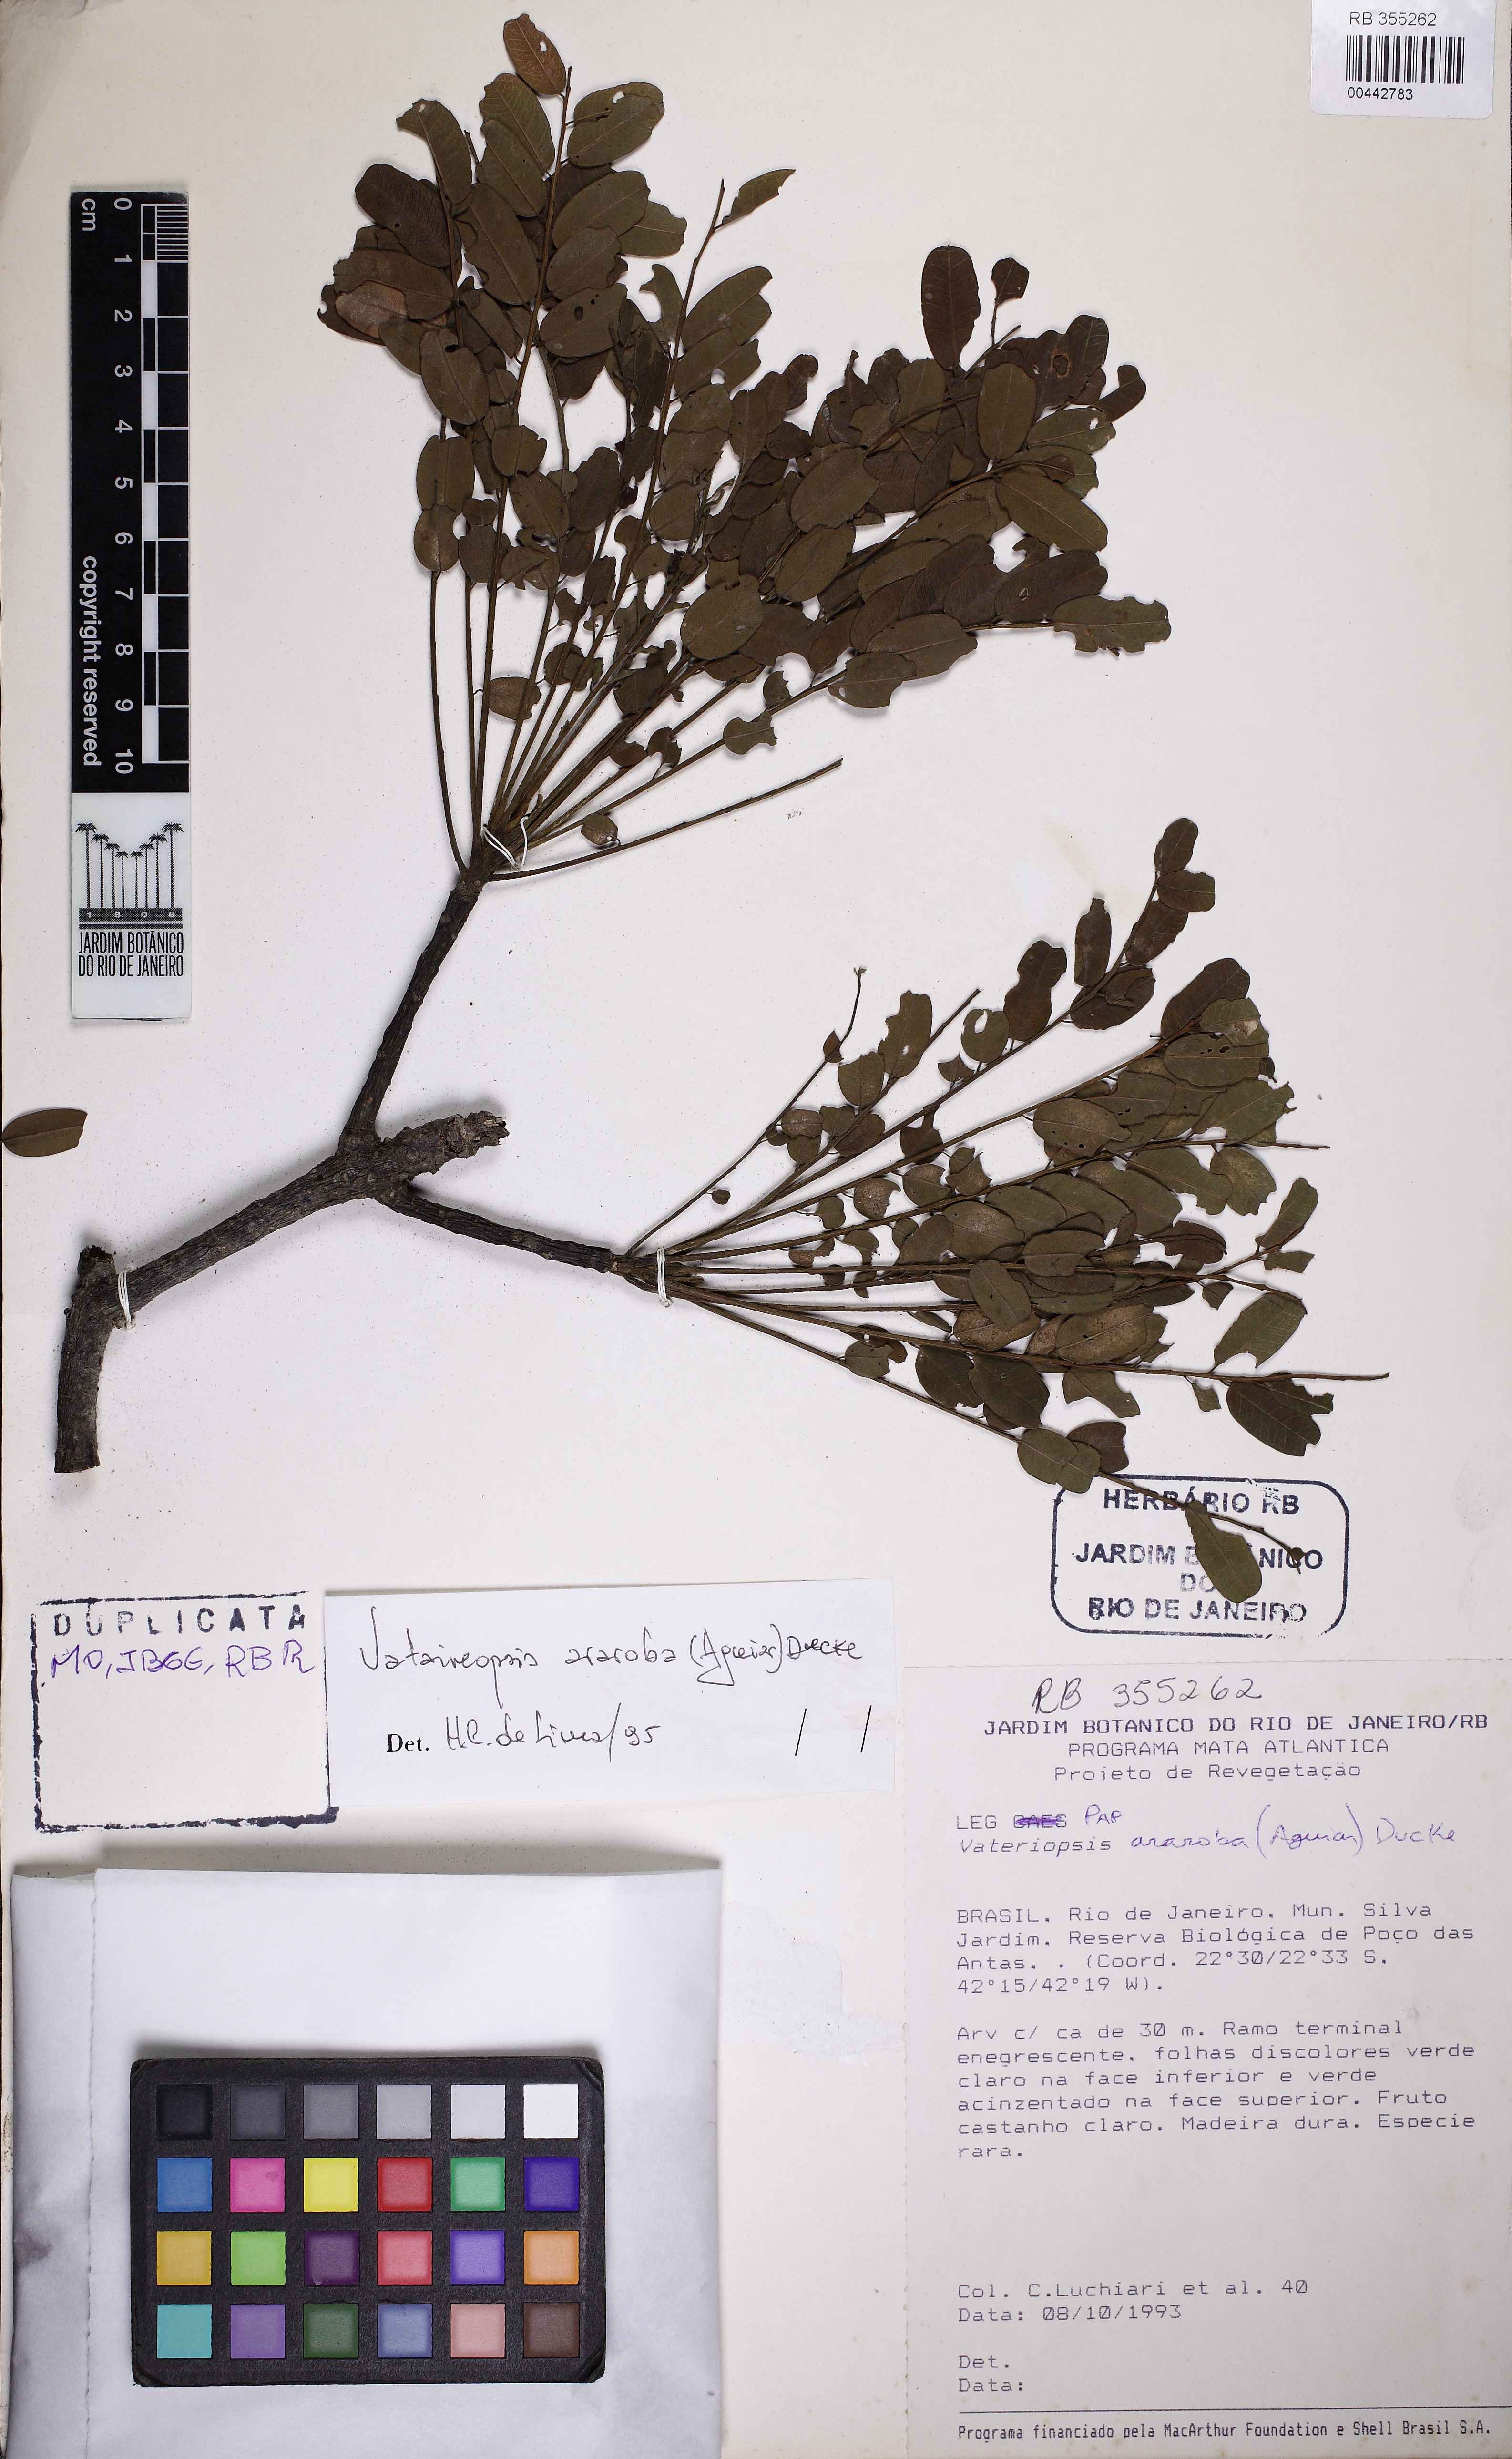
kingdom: Plantae
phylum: Tracheophyta
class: Magnoliopsida
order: Fabales
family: Fabaceae
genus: Vataireopsis
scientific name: Vataireopsis araroba
